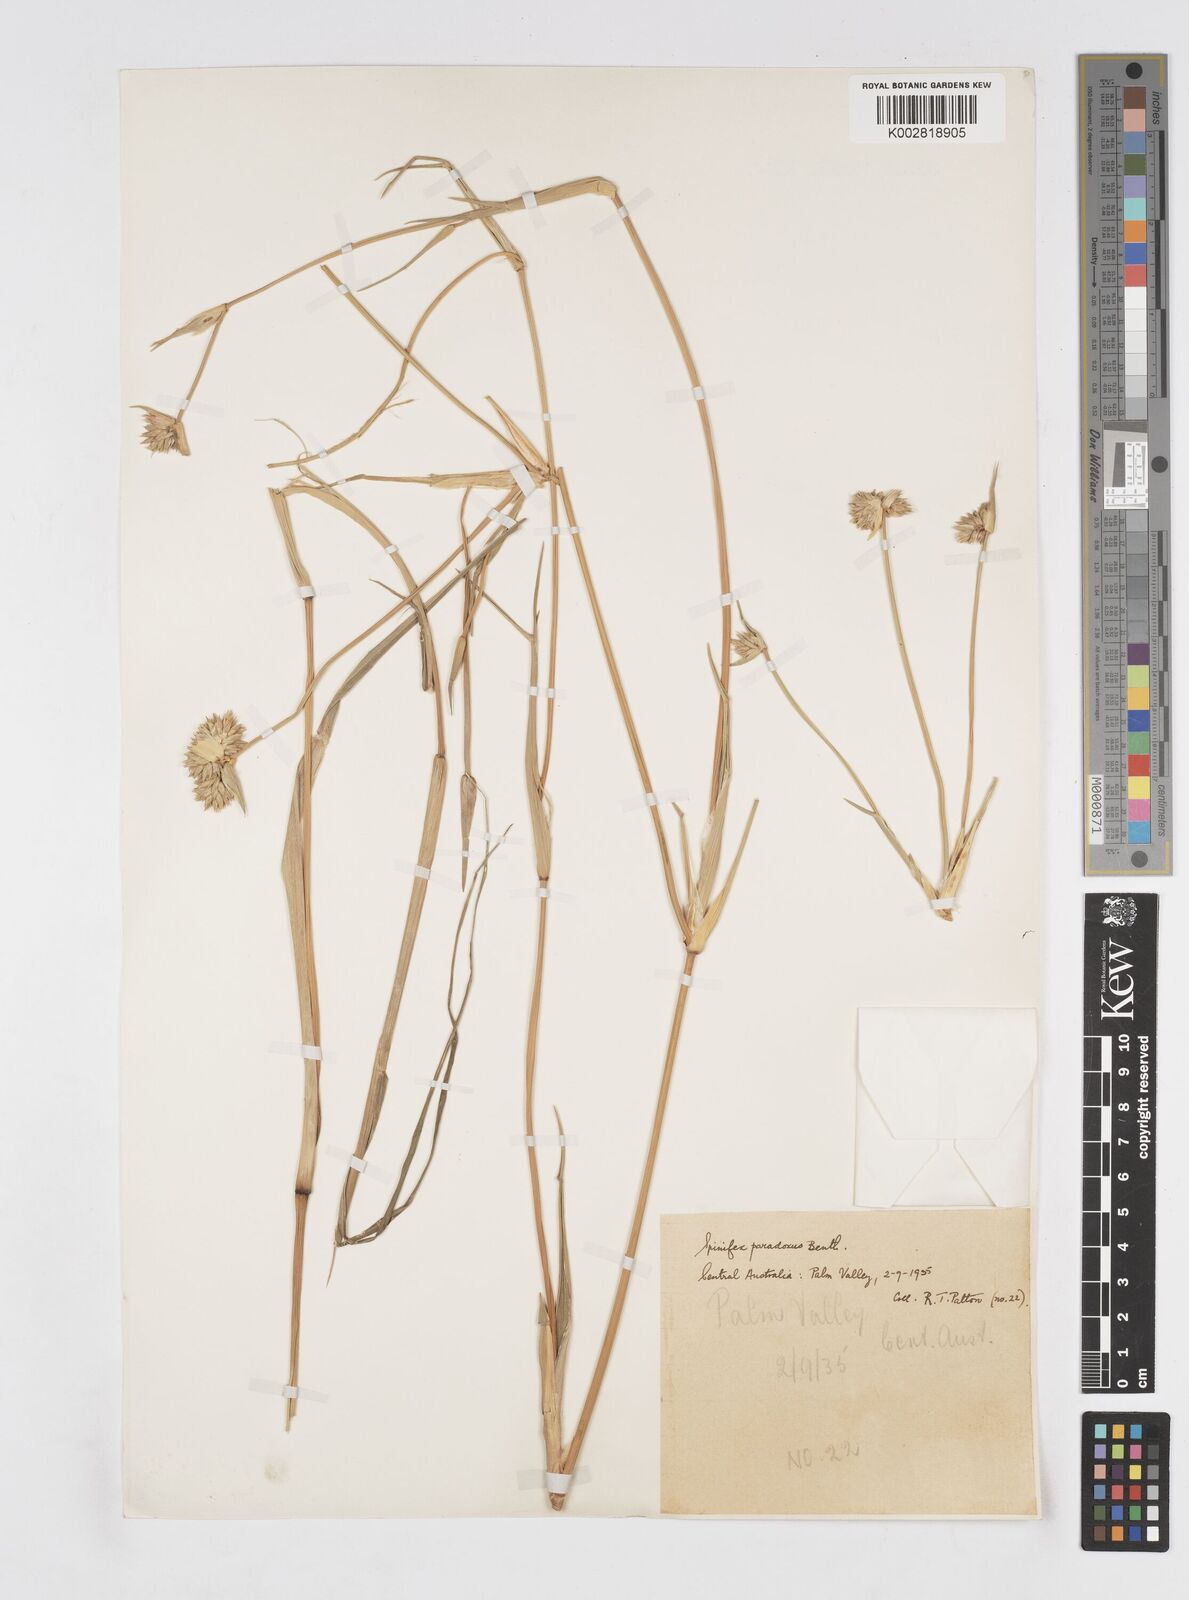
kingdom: Plantae
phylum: Tracheophyta
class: Liliopsida
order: Poales
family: Poaceae
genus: Zygochloa
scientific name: Zygochloa paradoxa
